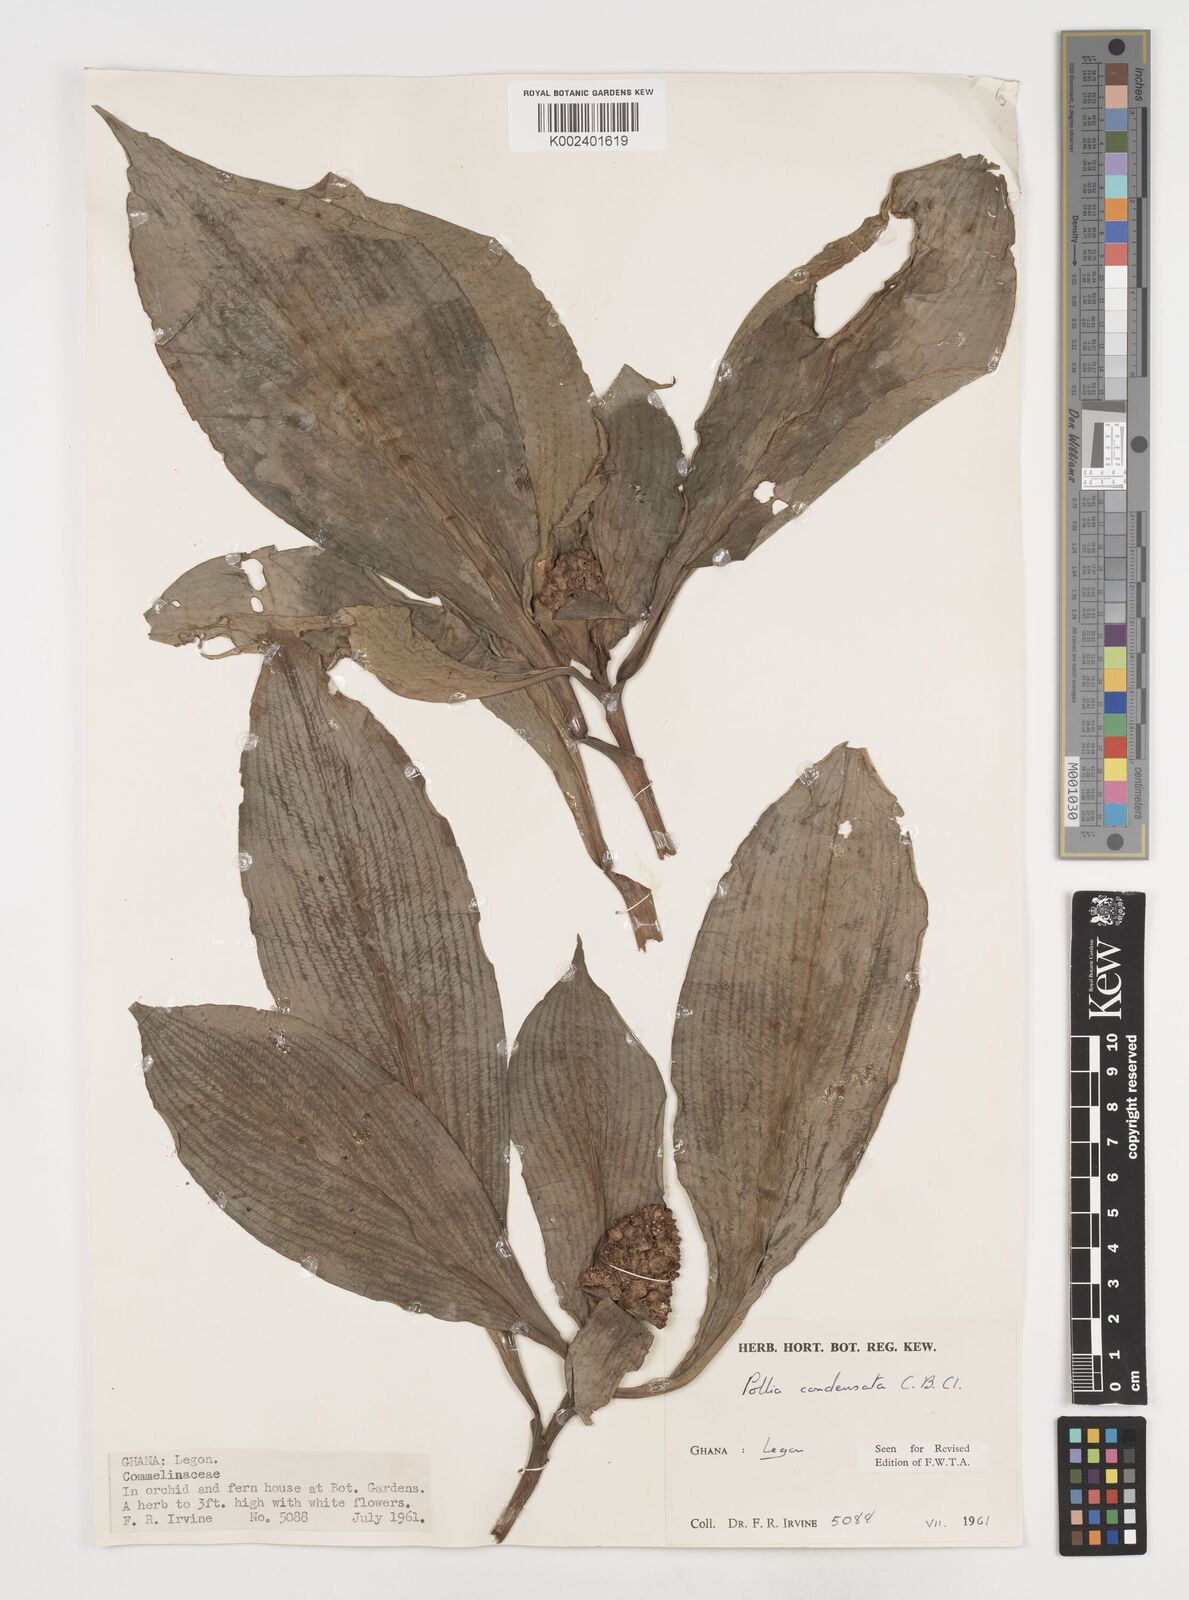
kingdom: Plantae
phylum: Tracheophyta
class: Liliopsida
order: Commelinales
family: Commelinaceae
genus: Pollia
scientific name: Pollia condensata
